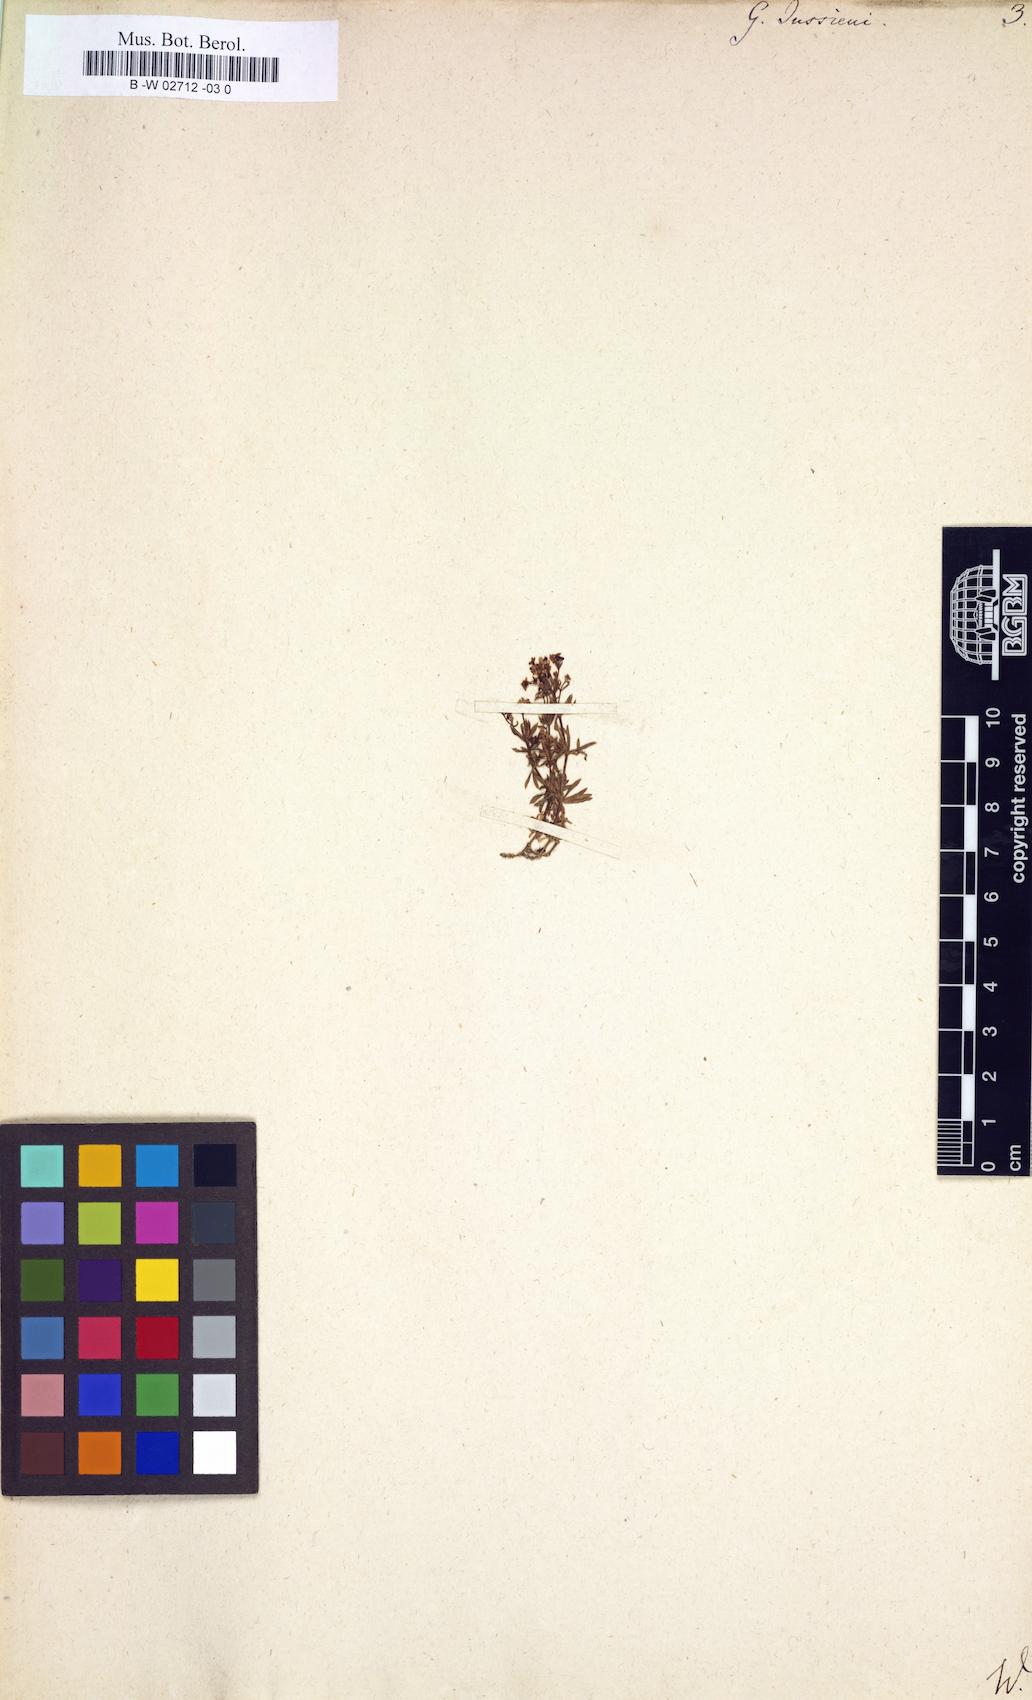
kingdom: Plantae
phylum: Tracheophyta
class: Magnoliopsida
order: Gentianales
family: Rubiaceae
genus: Galium
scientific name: Galium
